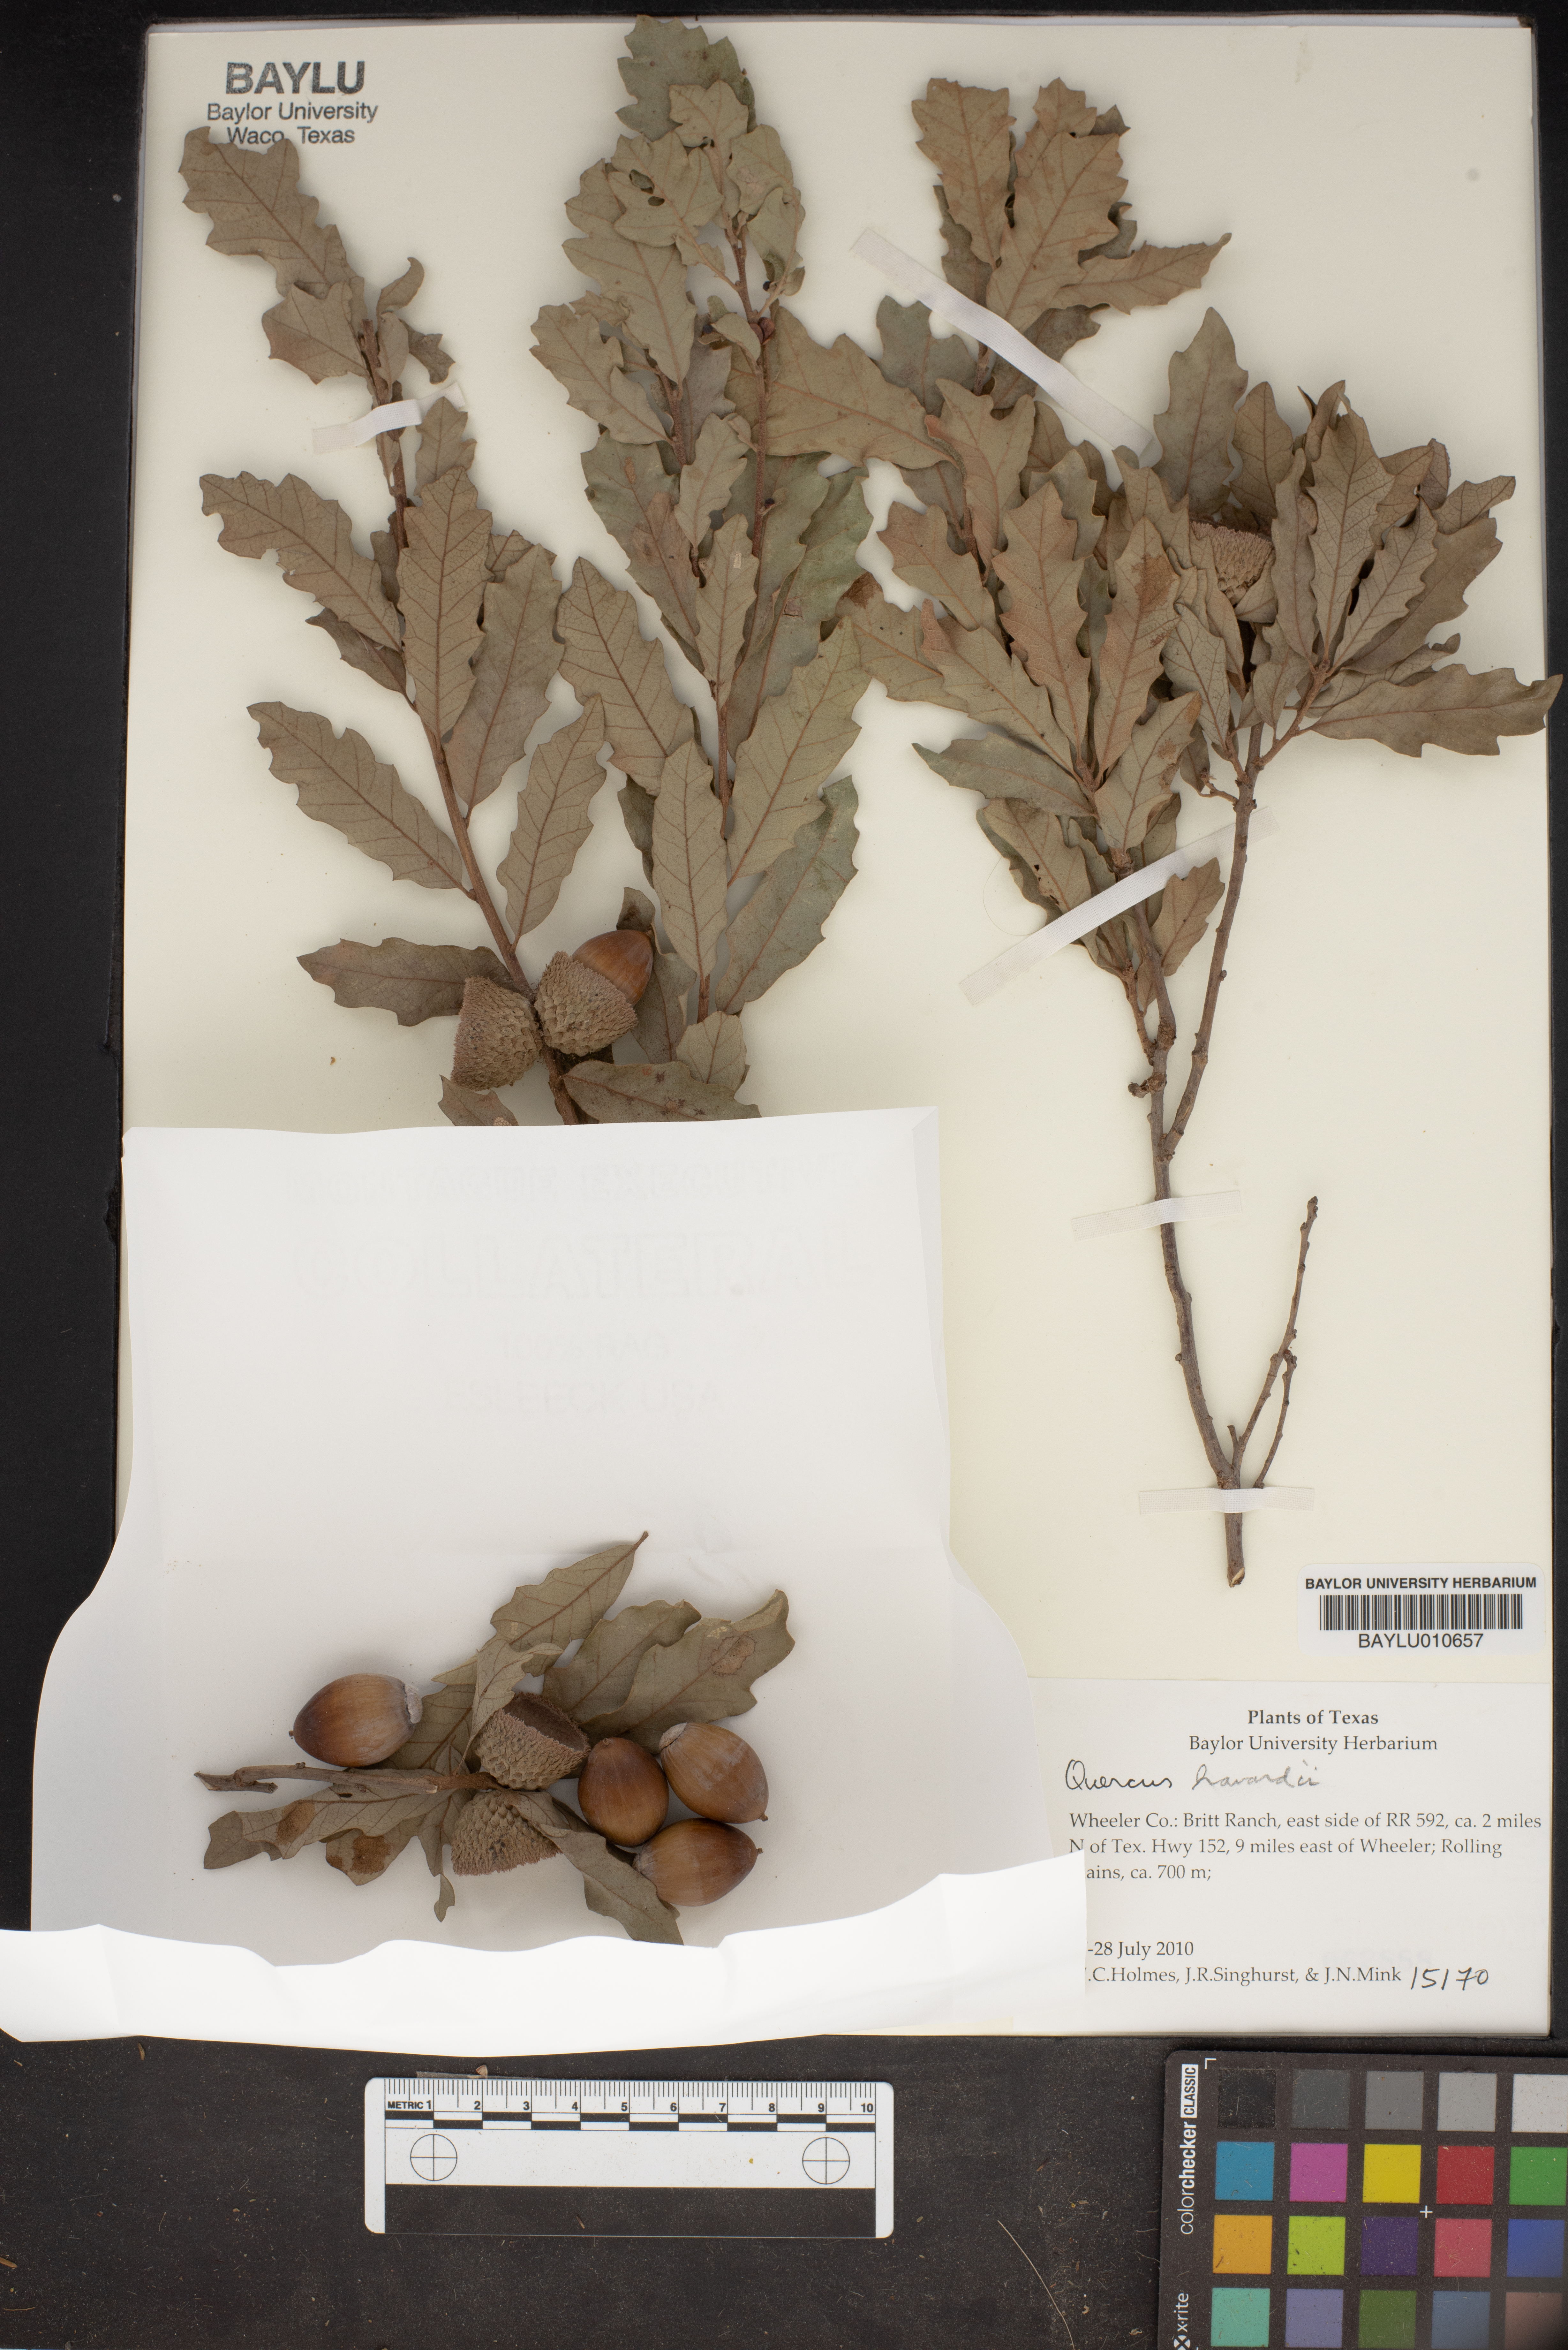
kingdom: Plantae
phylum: Tracheophyta
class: Magnoliopsida
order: Fagales
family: Fagaceae
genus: Quercus
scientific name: Quercus havardii
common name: Shinnery oak
